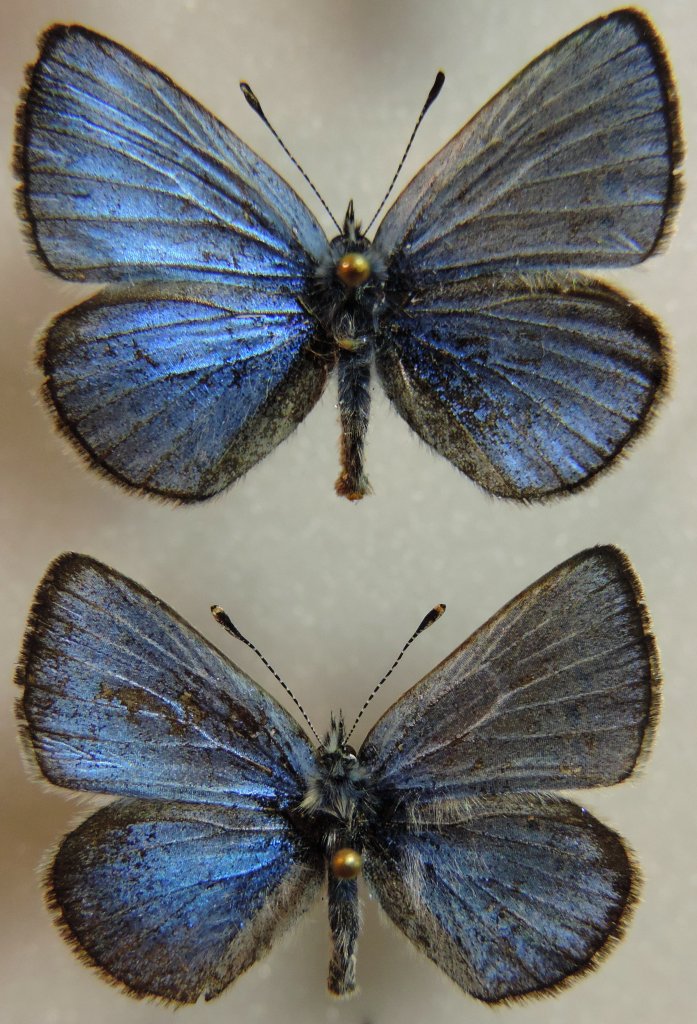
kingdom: Animalia
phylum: Arthropoda
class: Insecta
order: Lepidoptera
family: Lycaenidae
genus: Glaucopsyche
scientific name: Glaucopsyche lygdamus
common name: Silvery Blue
